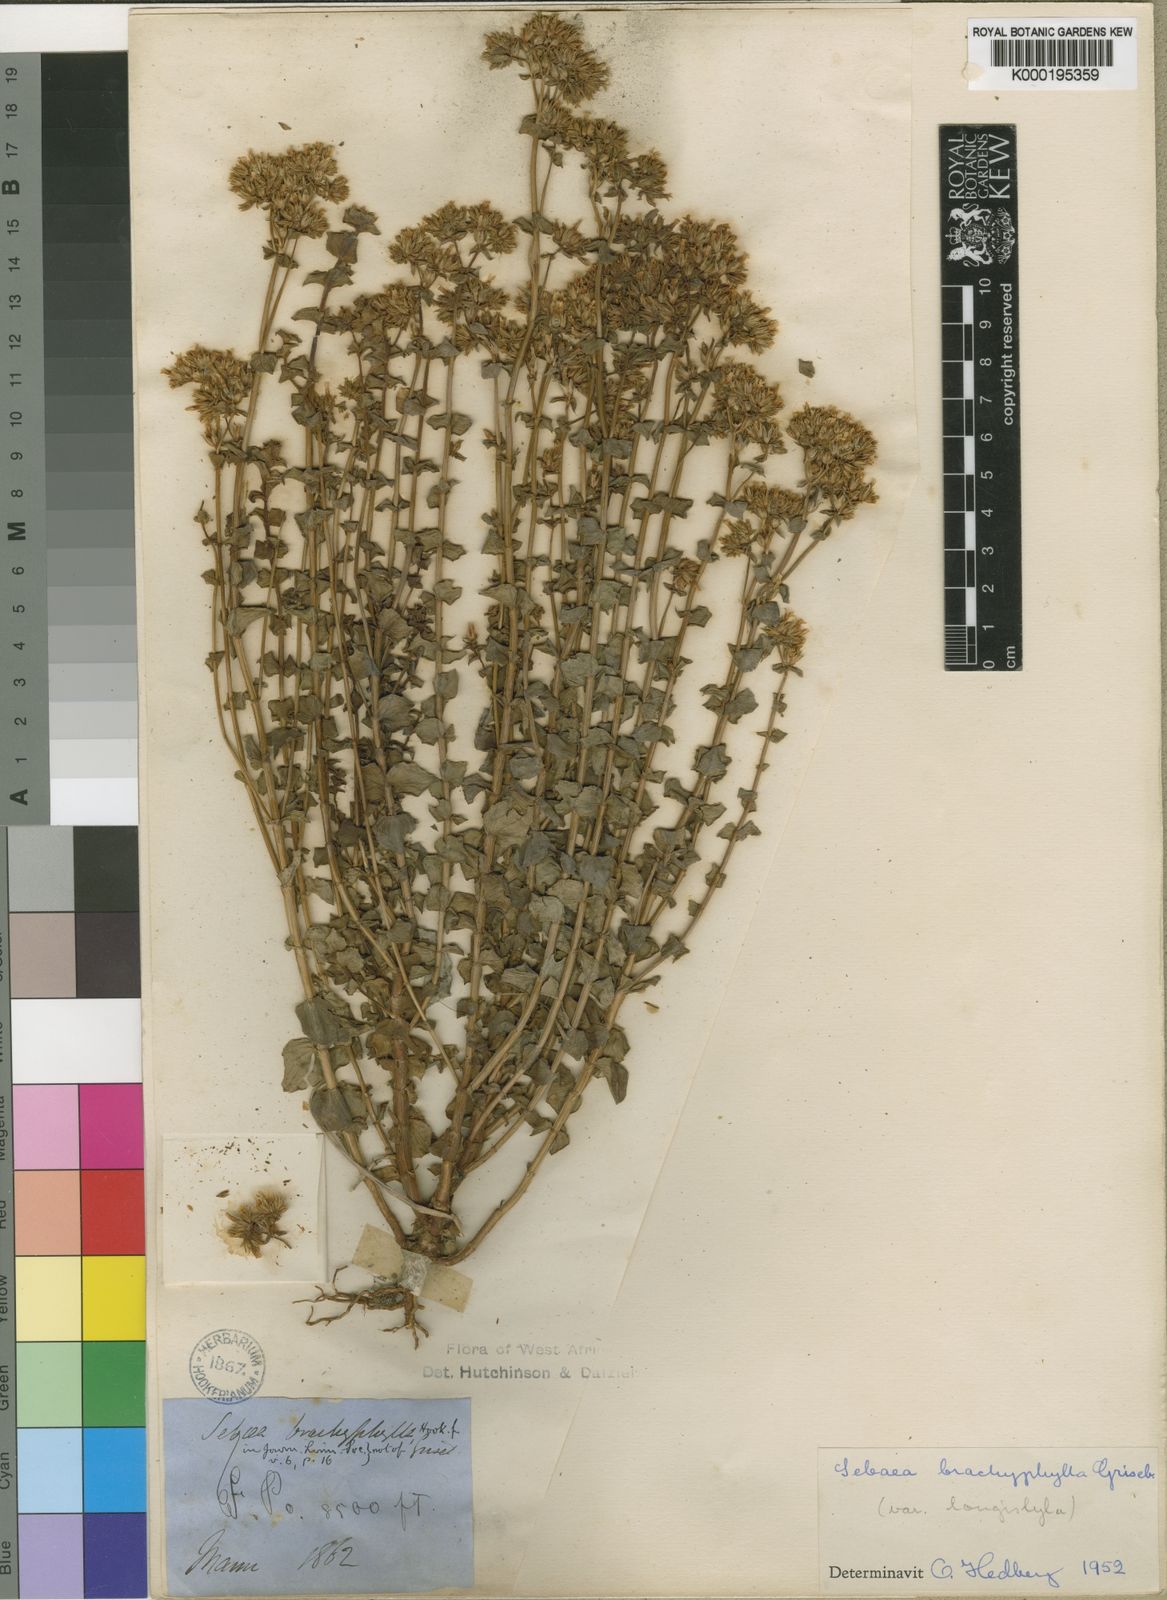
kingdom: Plantae
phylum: Tracheophyta
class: Magnoliopsida
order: Gentianales
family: Gentianaceae
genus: Sebaea
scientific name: Sebaea brachyphylla
